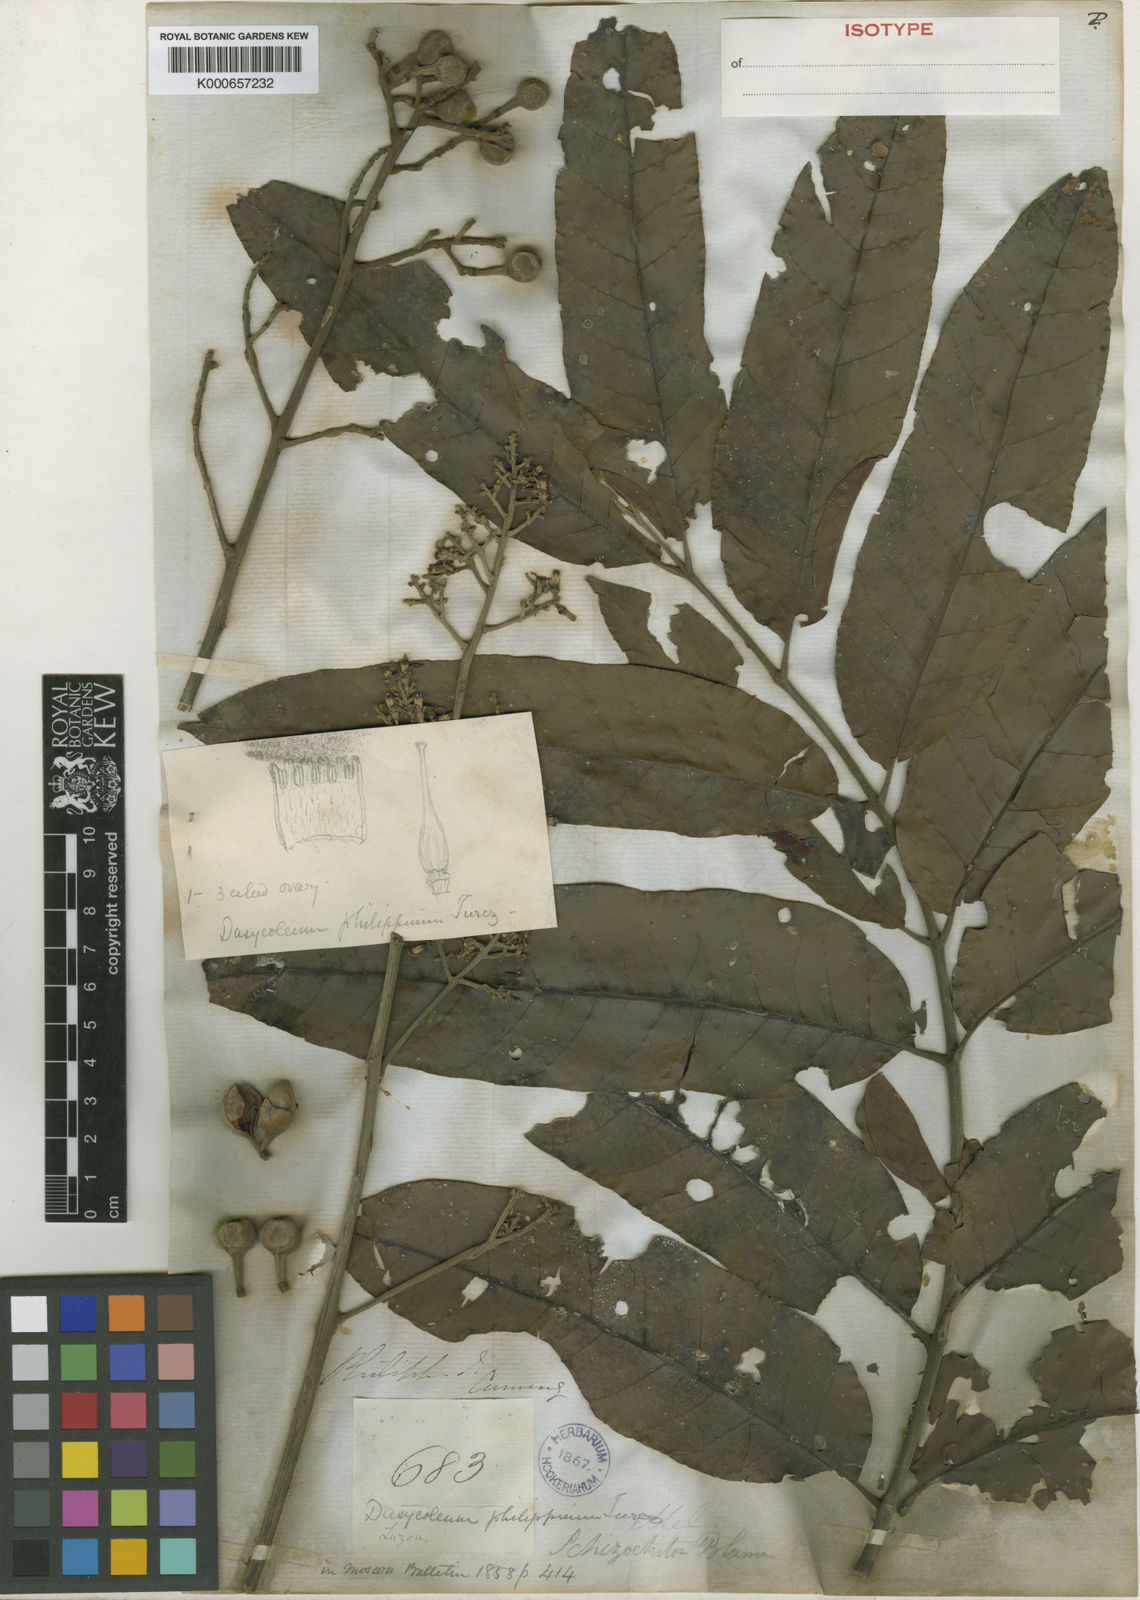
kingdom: Plantae
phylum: Tracheophyta
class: Magnoliopsida
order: Sapindales
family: Meliaceae
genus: Chisocheton
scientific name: Chisocheton pentandrus
